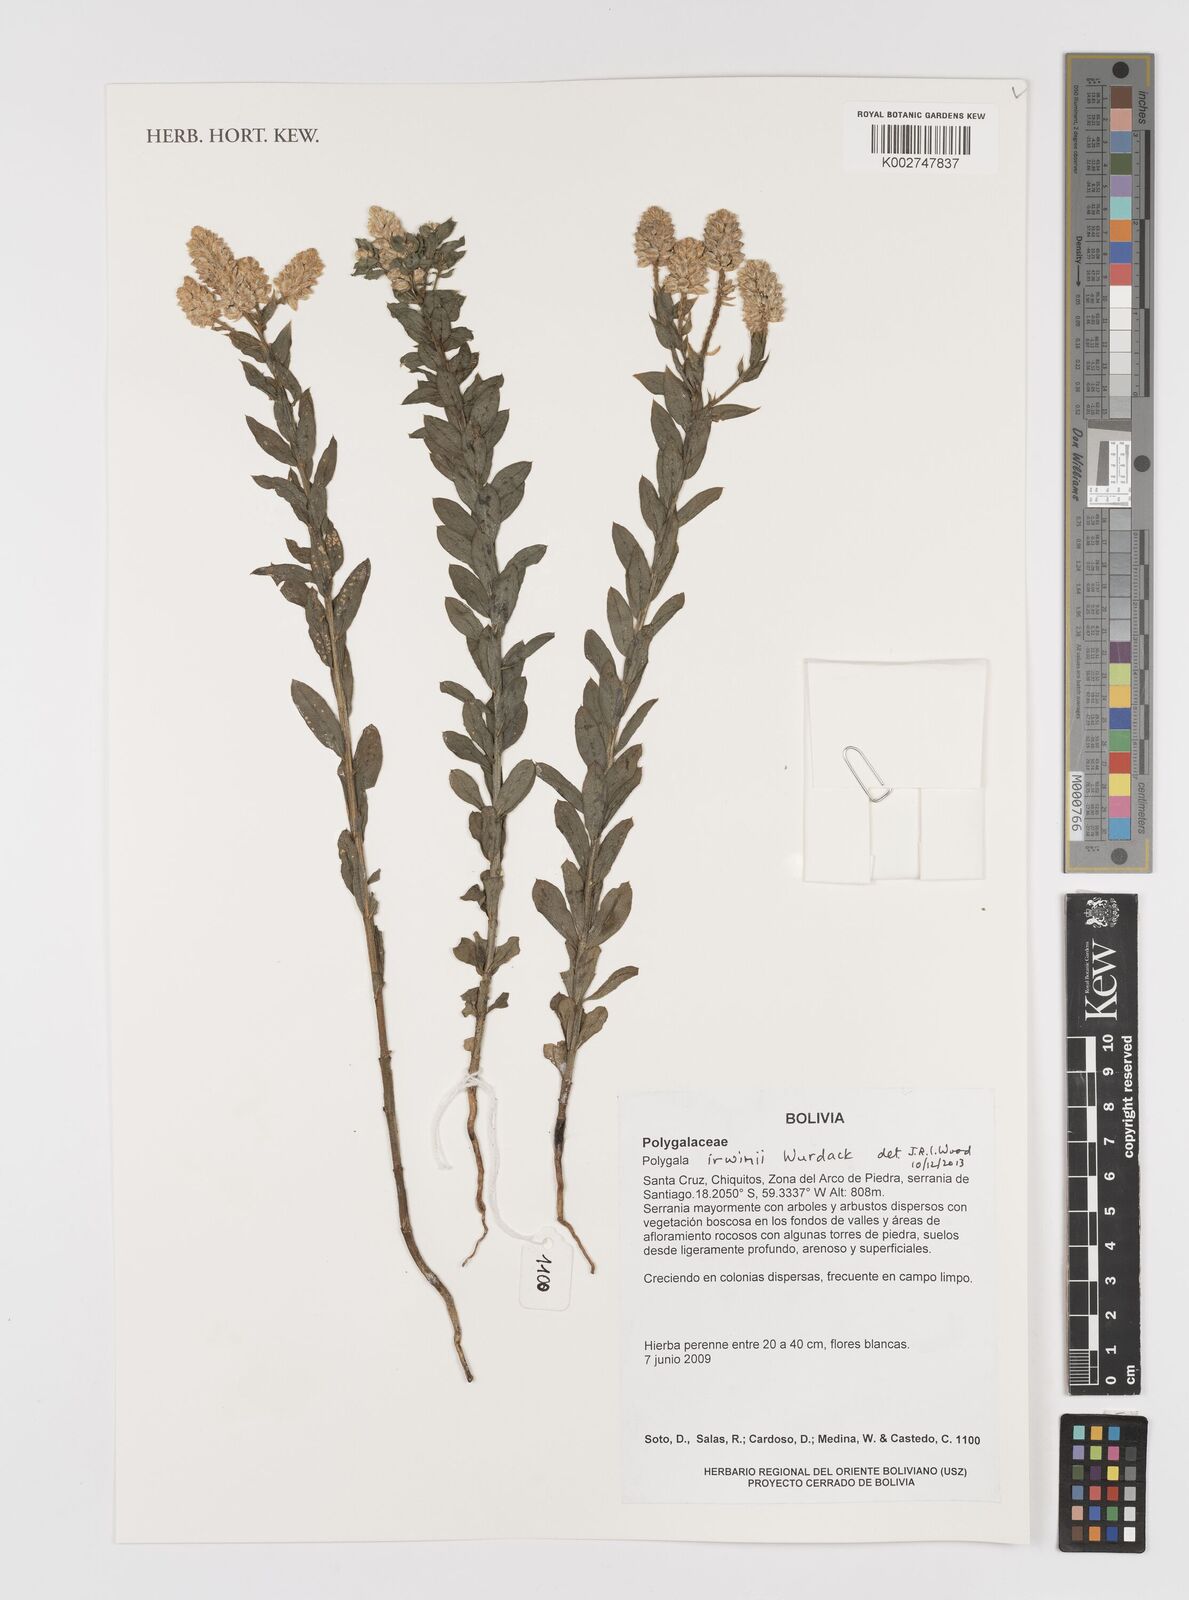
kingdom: Plantae
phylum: Tracheophyta
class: Magnoliopsida
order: Fabales
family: Polygalaceae
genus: Polygala
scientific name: Polygala irwinii
